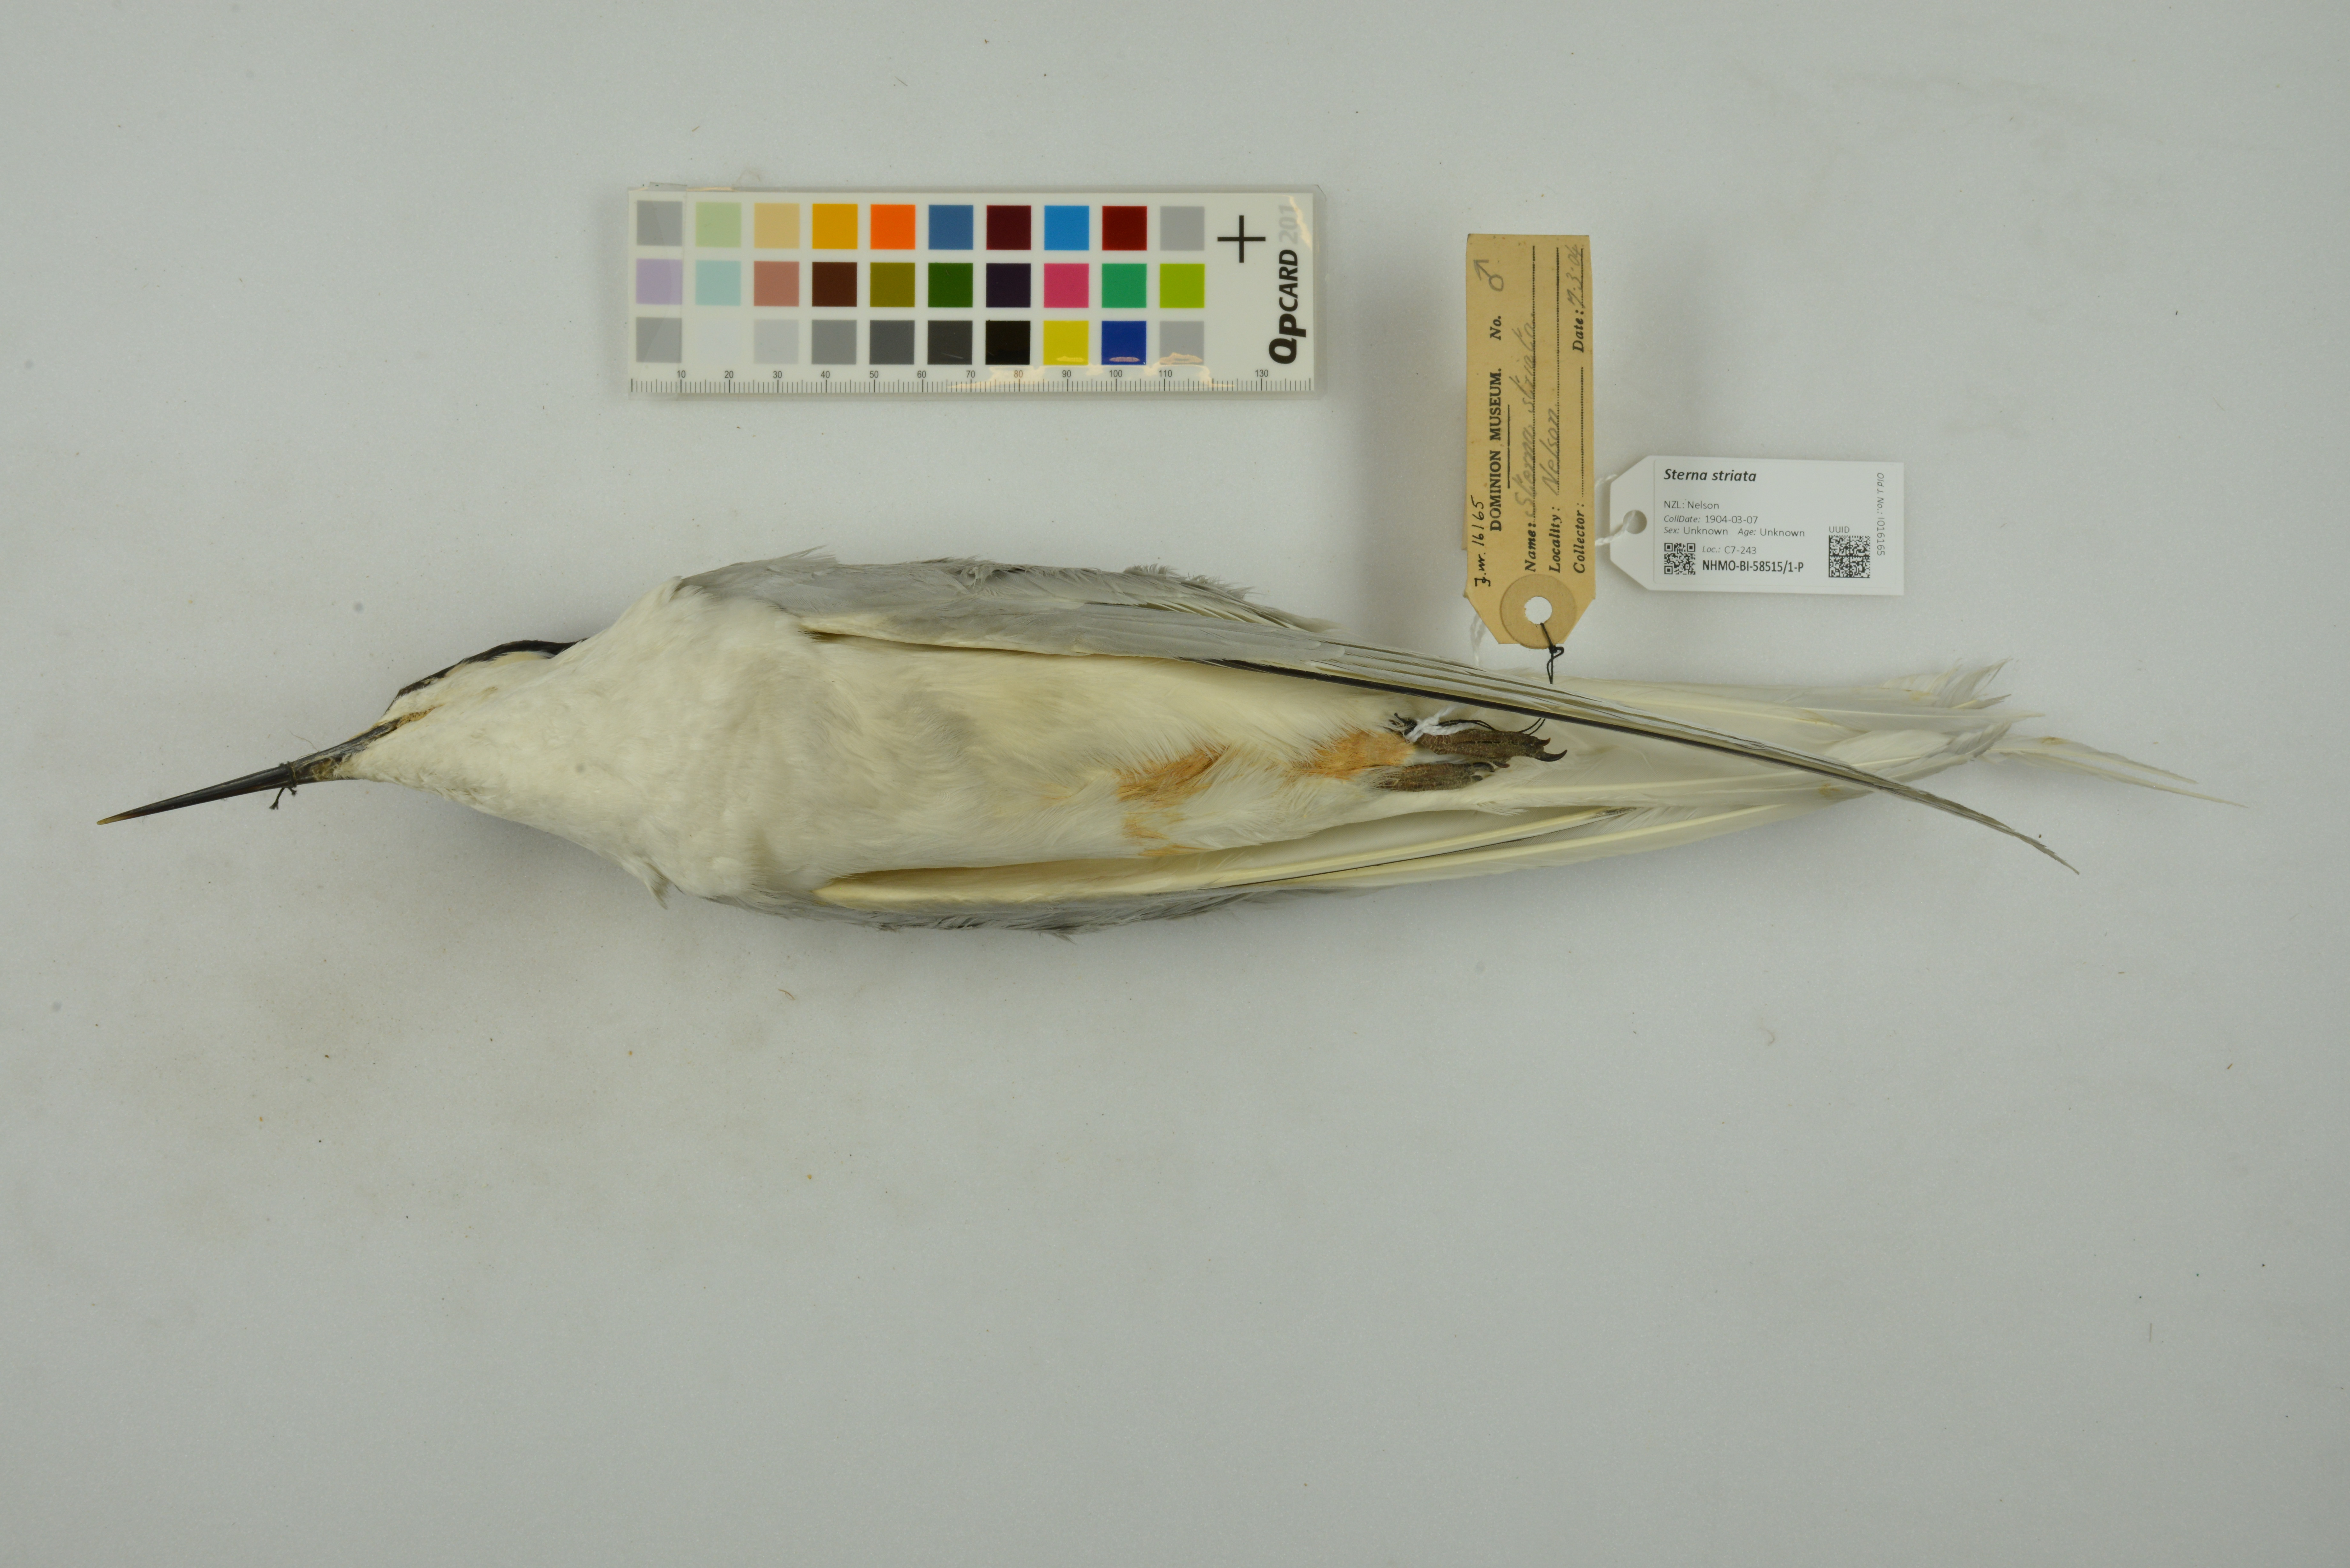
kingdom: Animalia
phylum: Chordata
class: Aves
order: Charadriiformes
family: Laridae
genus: Sterna
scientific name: Sterna striata
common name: White-fronted tern
